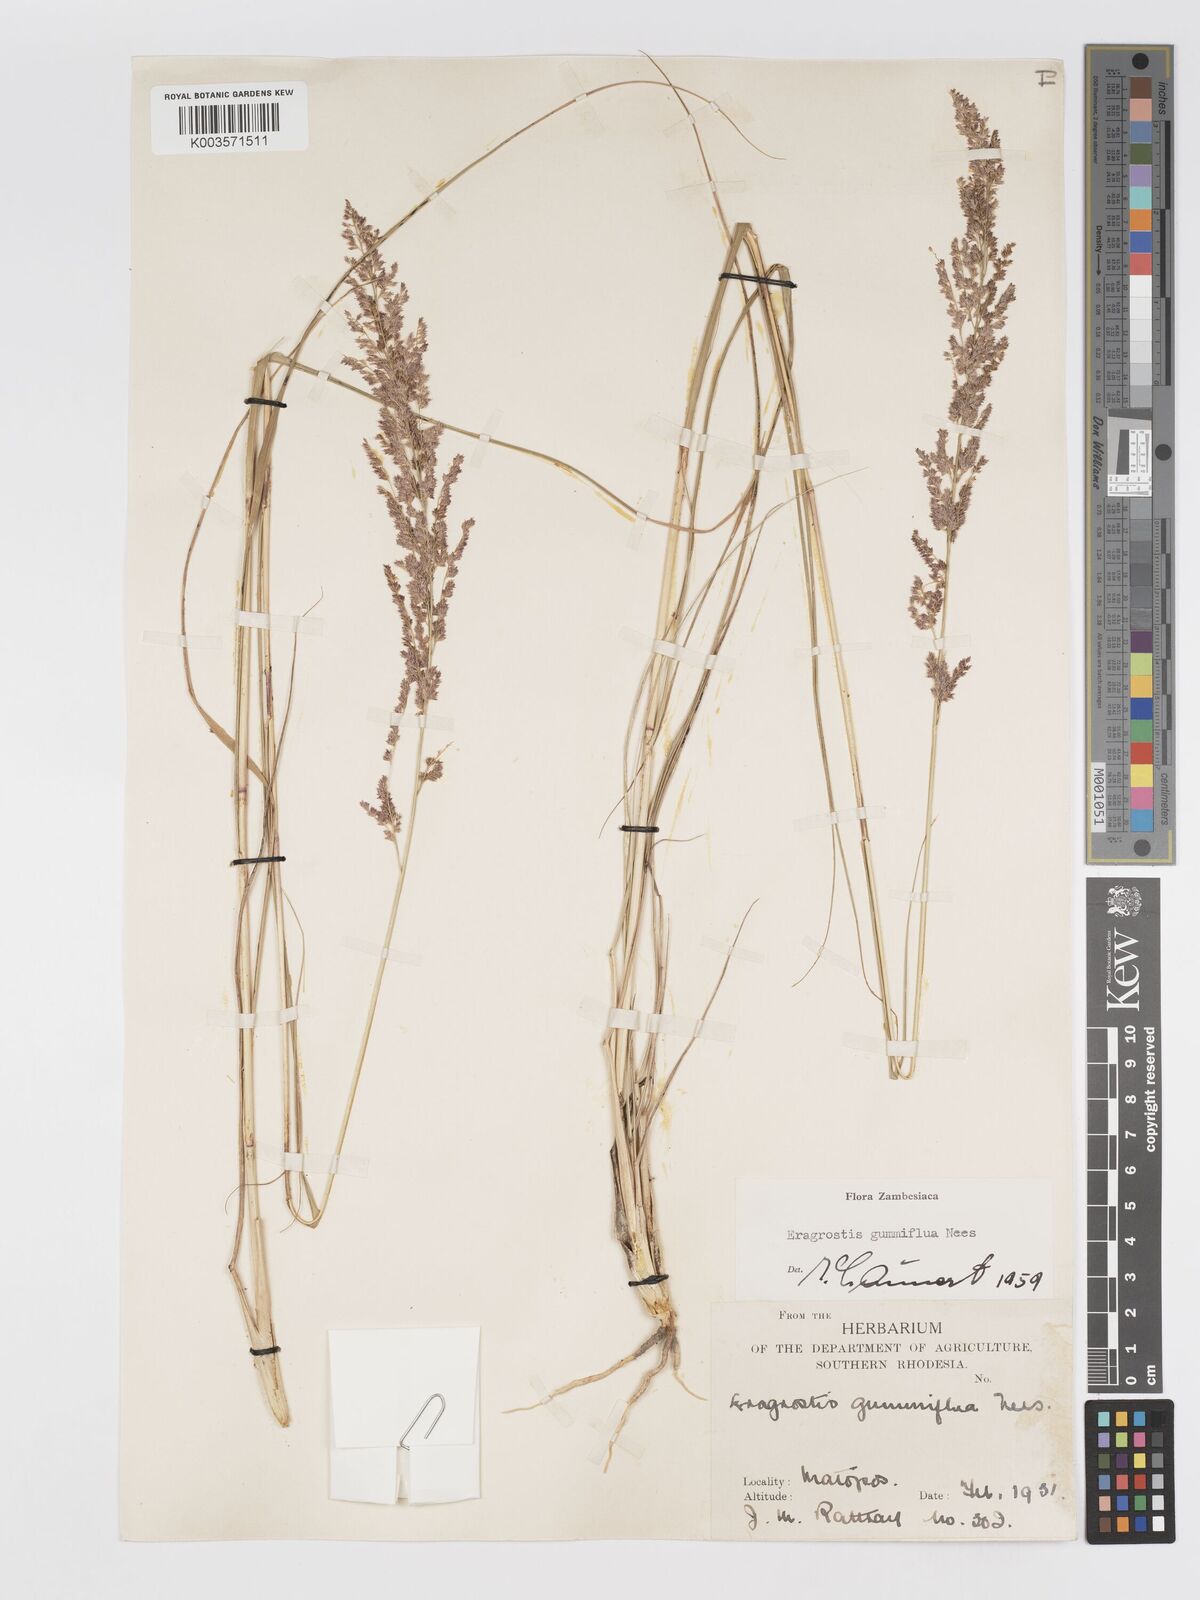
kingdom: Plantae
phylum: Tracheophyta
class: Liliopsida
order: Poales
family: Poaceae
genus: Eragrostis
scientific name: Eragrostis gummiflua
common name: Gum grass
